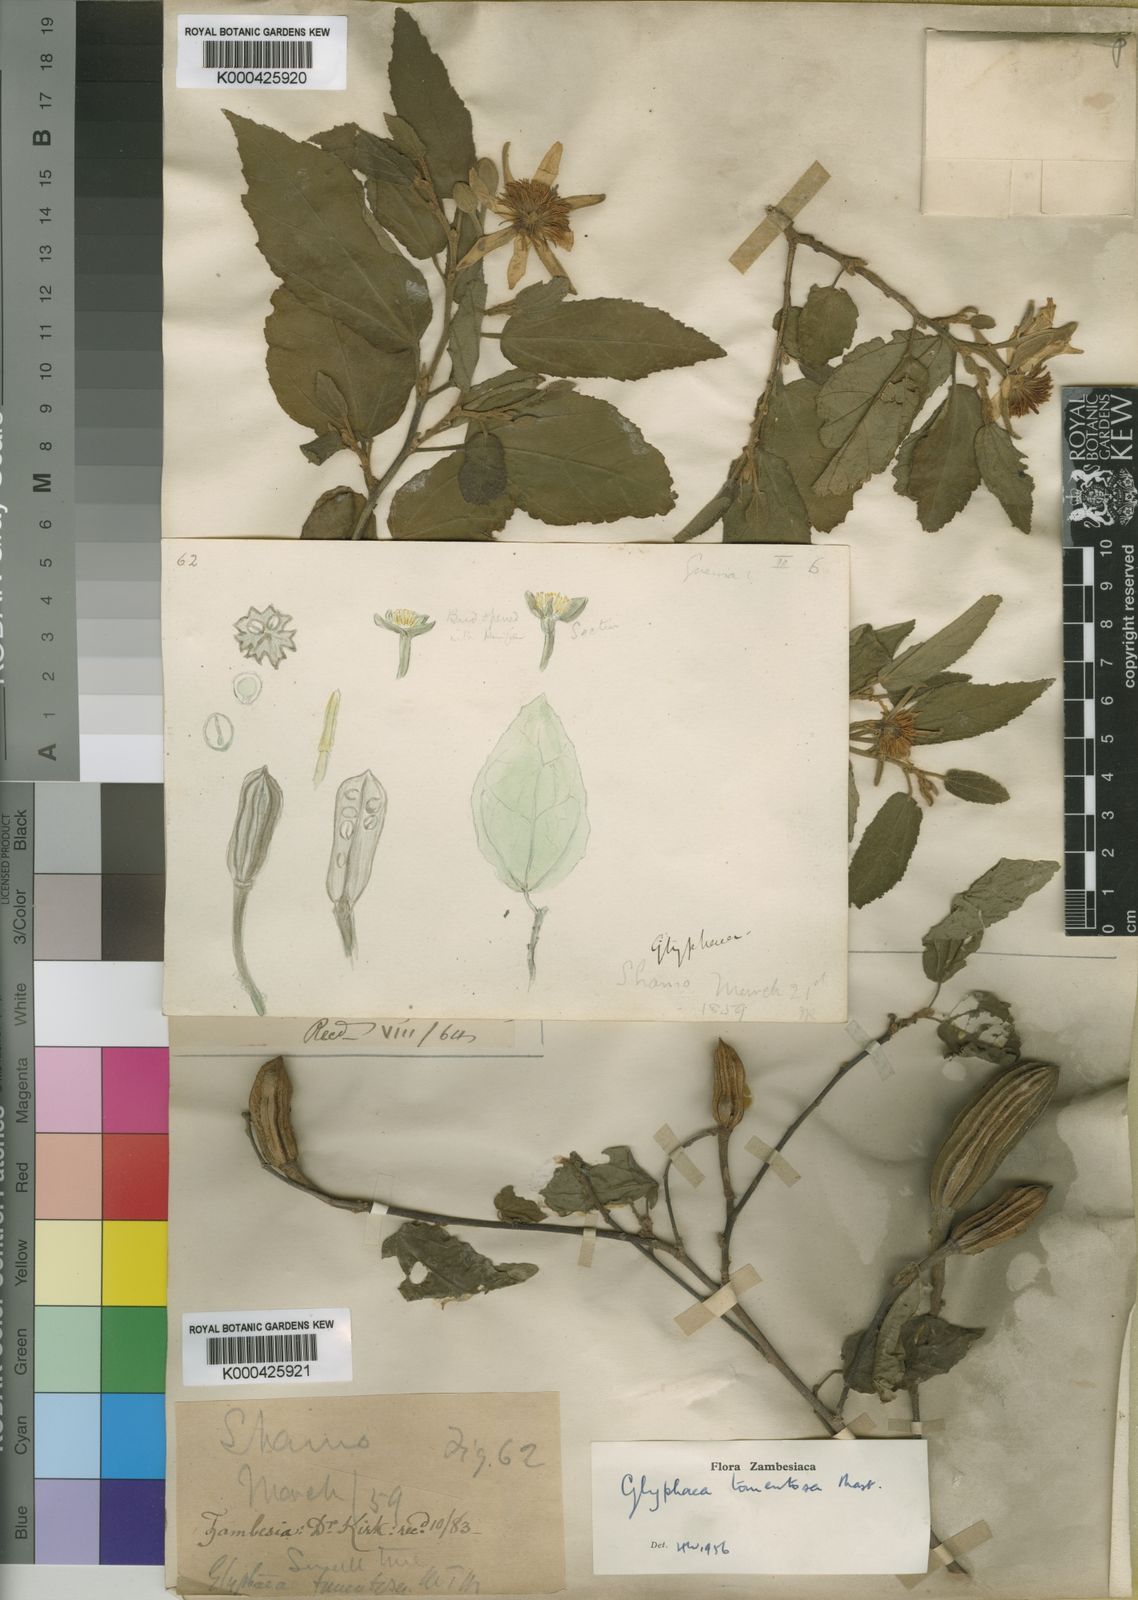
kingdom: Plantae
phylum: Tracheophyta
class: Magnoliopsida
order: Malvales
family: Malvaceae
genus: Glyphaea
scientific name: Glyphaea tomentosa
